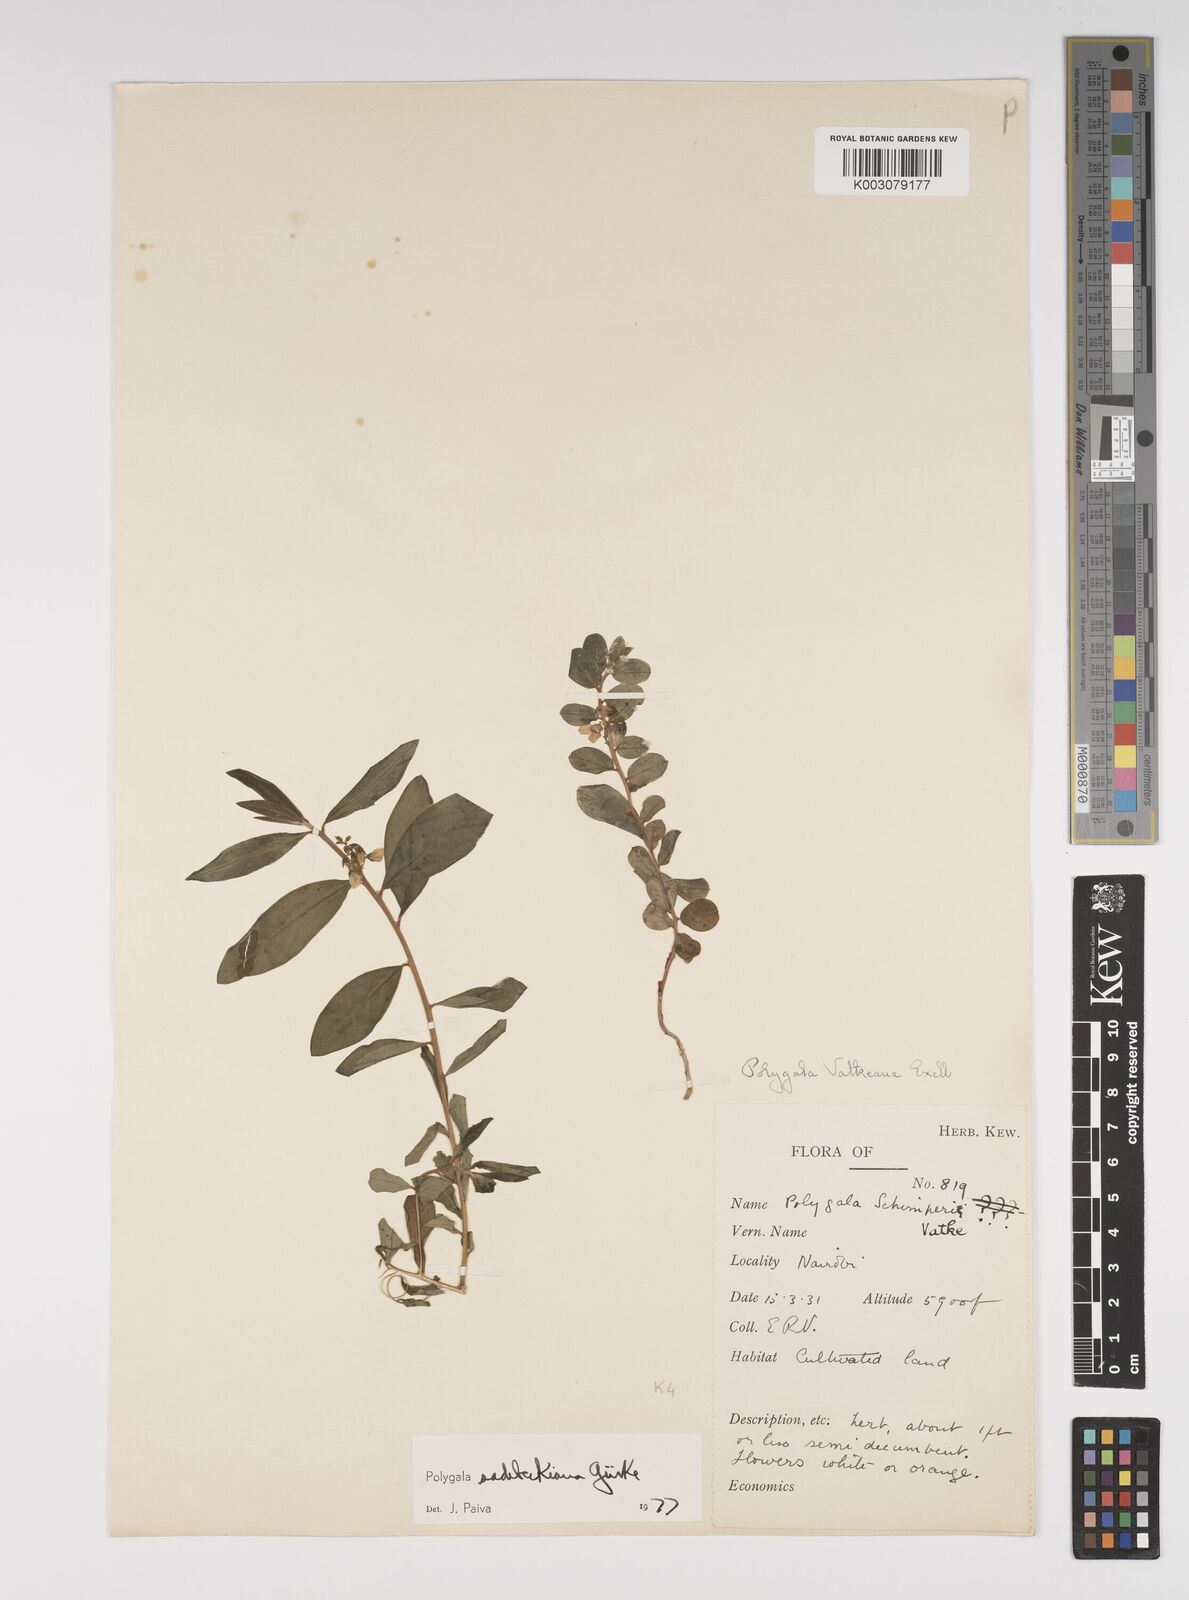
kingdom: Plantae
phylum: Tracheophyta
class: Magnoliopsida
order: Fabales
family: Polygalaceae
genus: Polygala
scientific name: Polygala sadebeckiana
